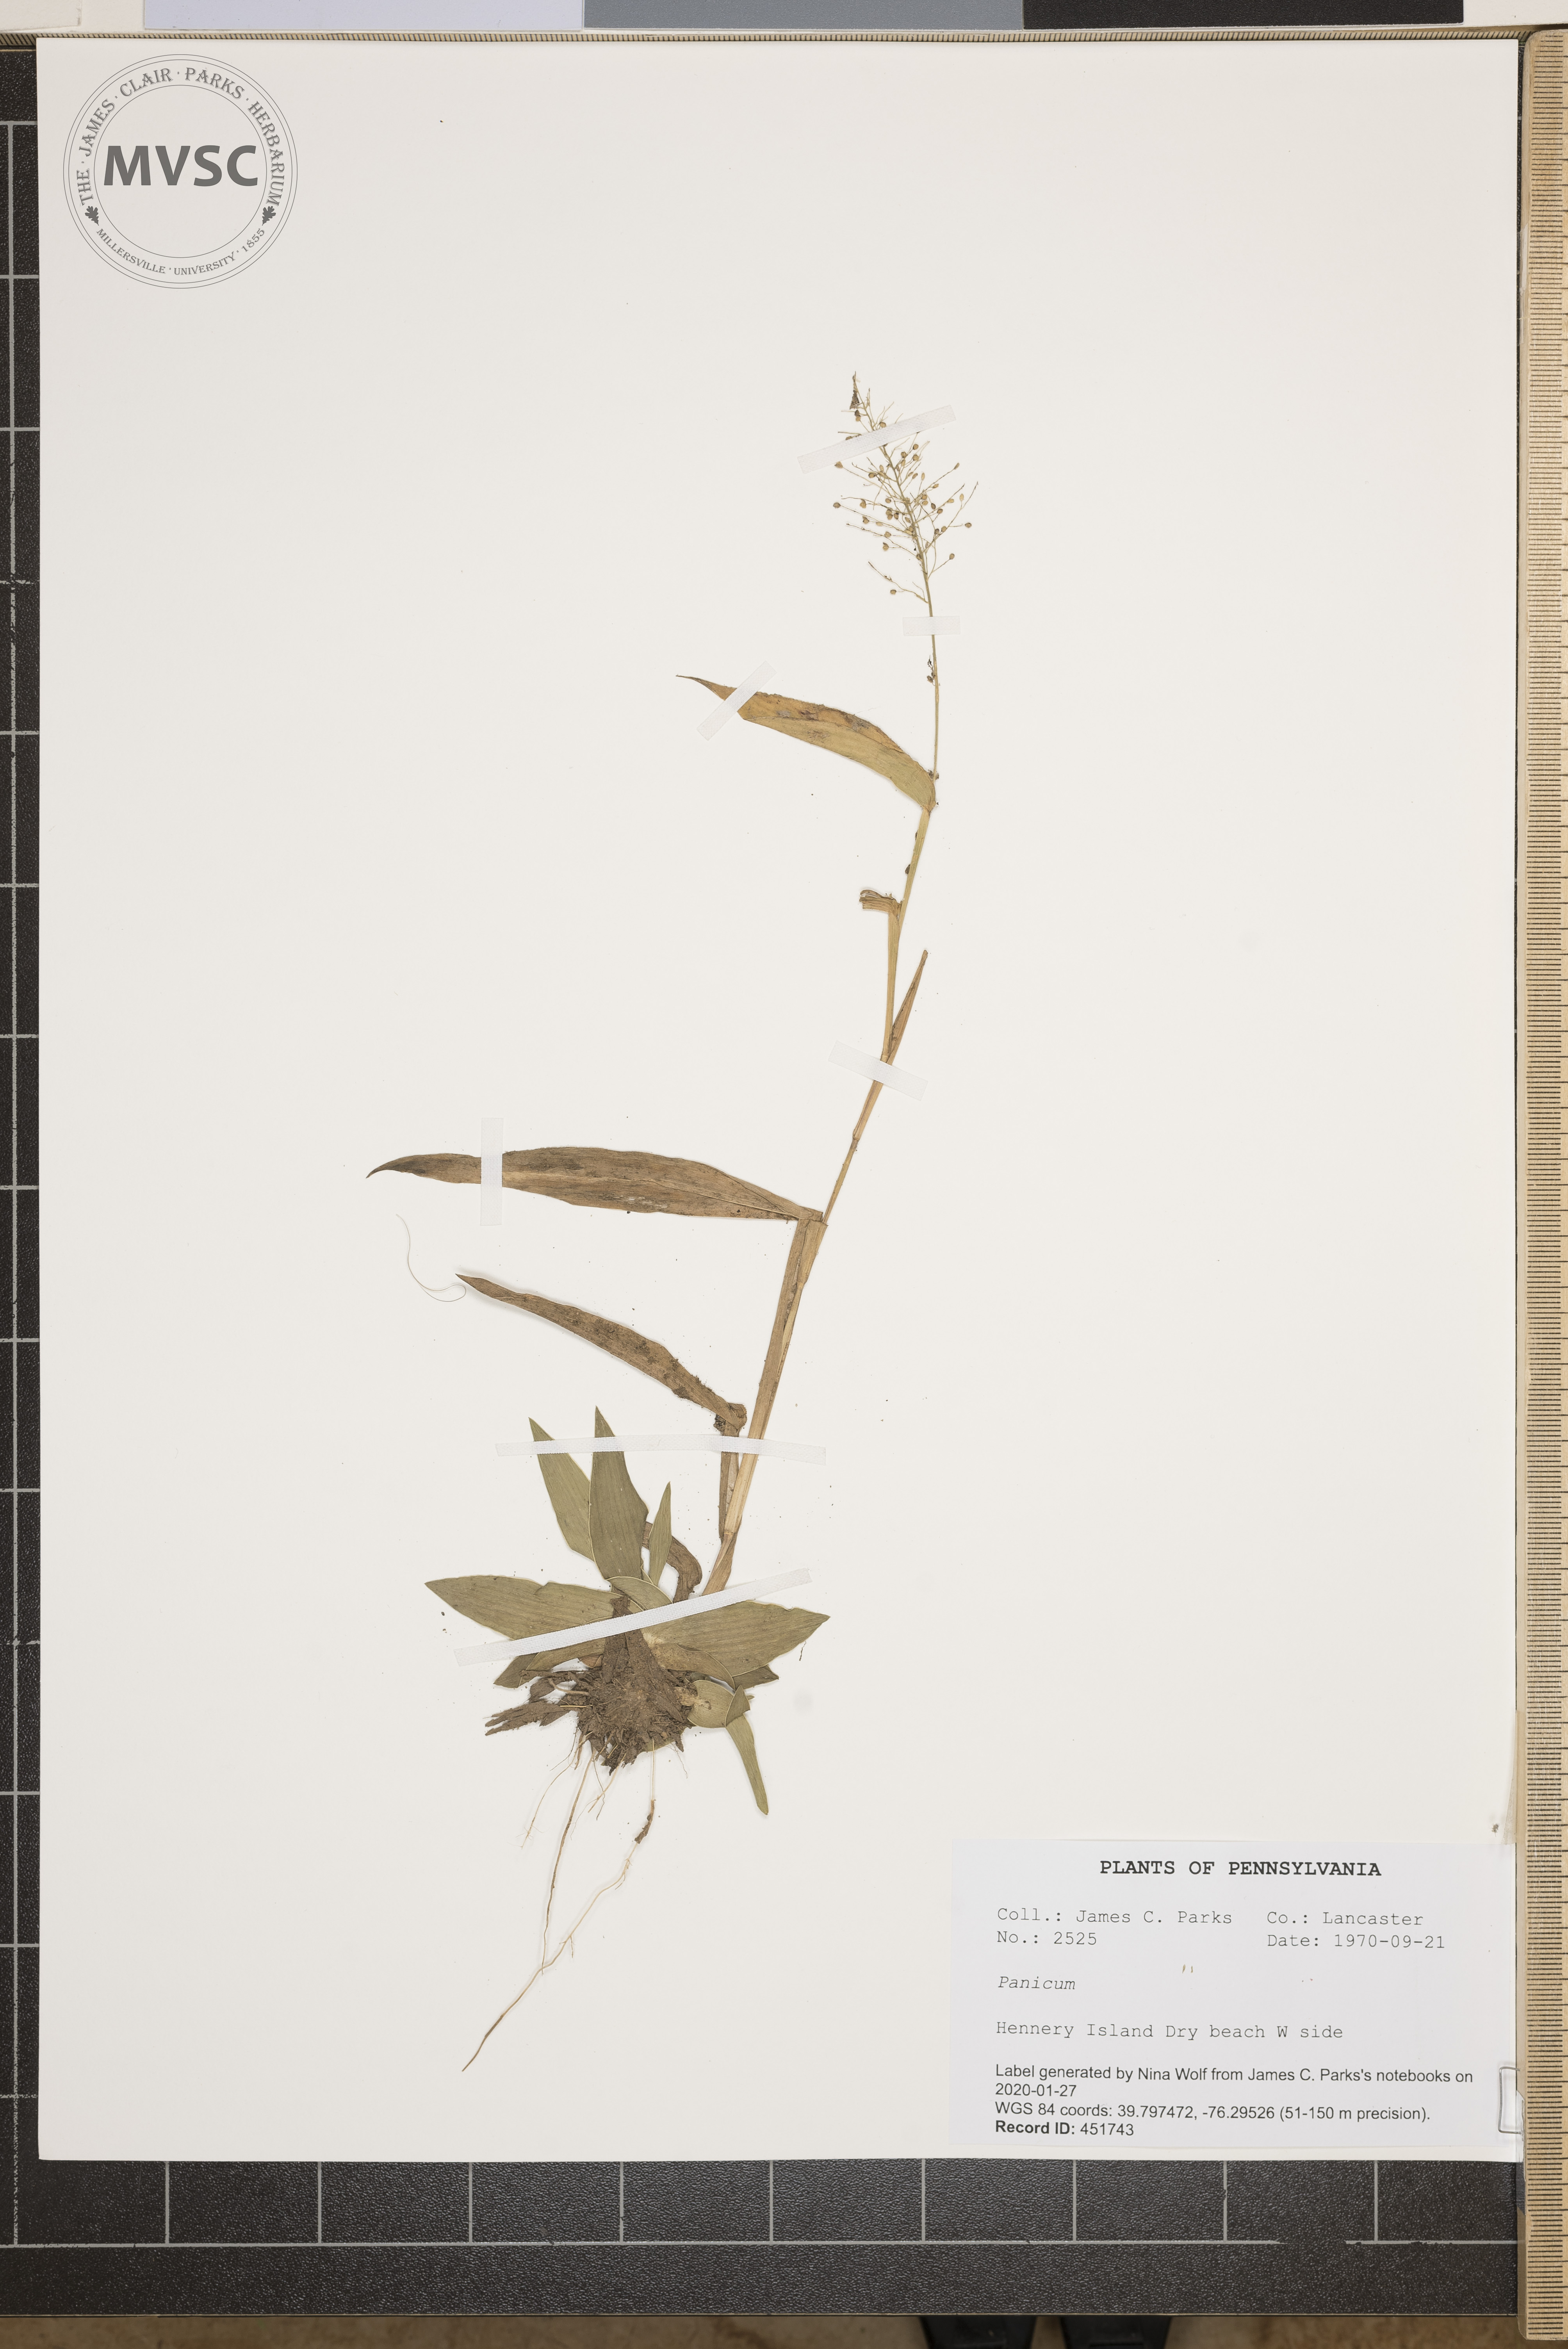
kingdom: Plantae
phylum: Tracheophyta
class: Liliopsida
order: Poales
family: Poaceae
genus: Panicum
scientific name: Panicum
